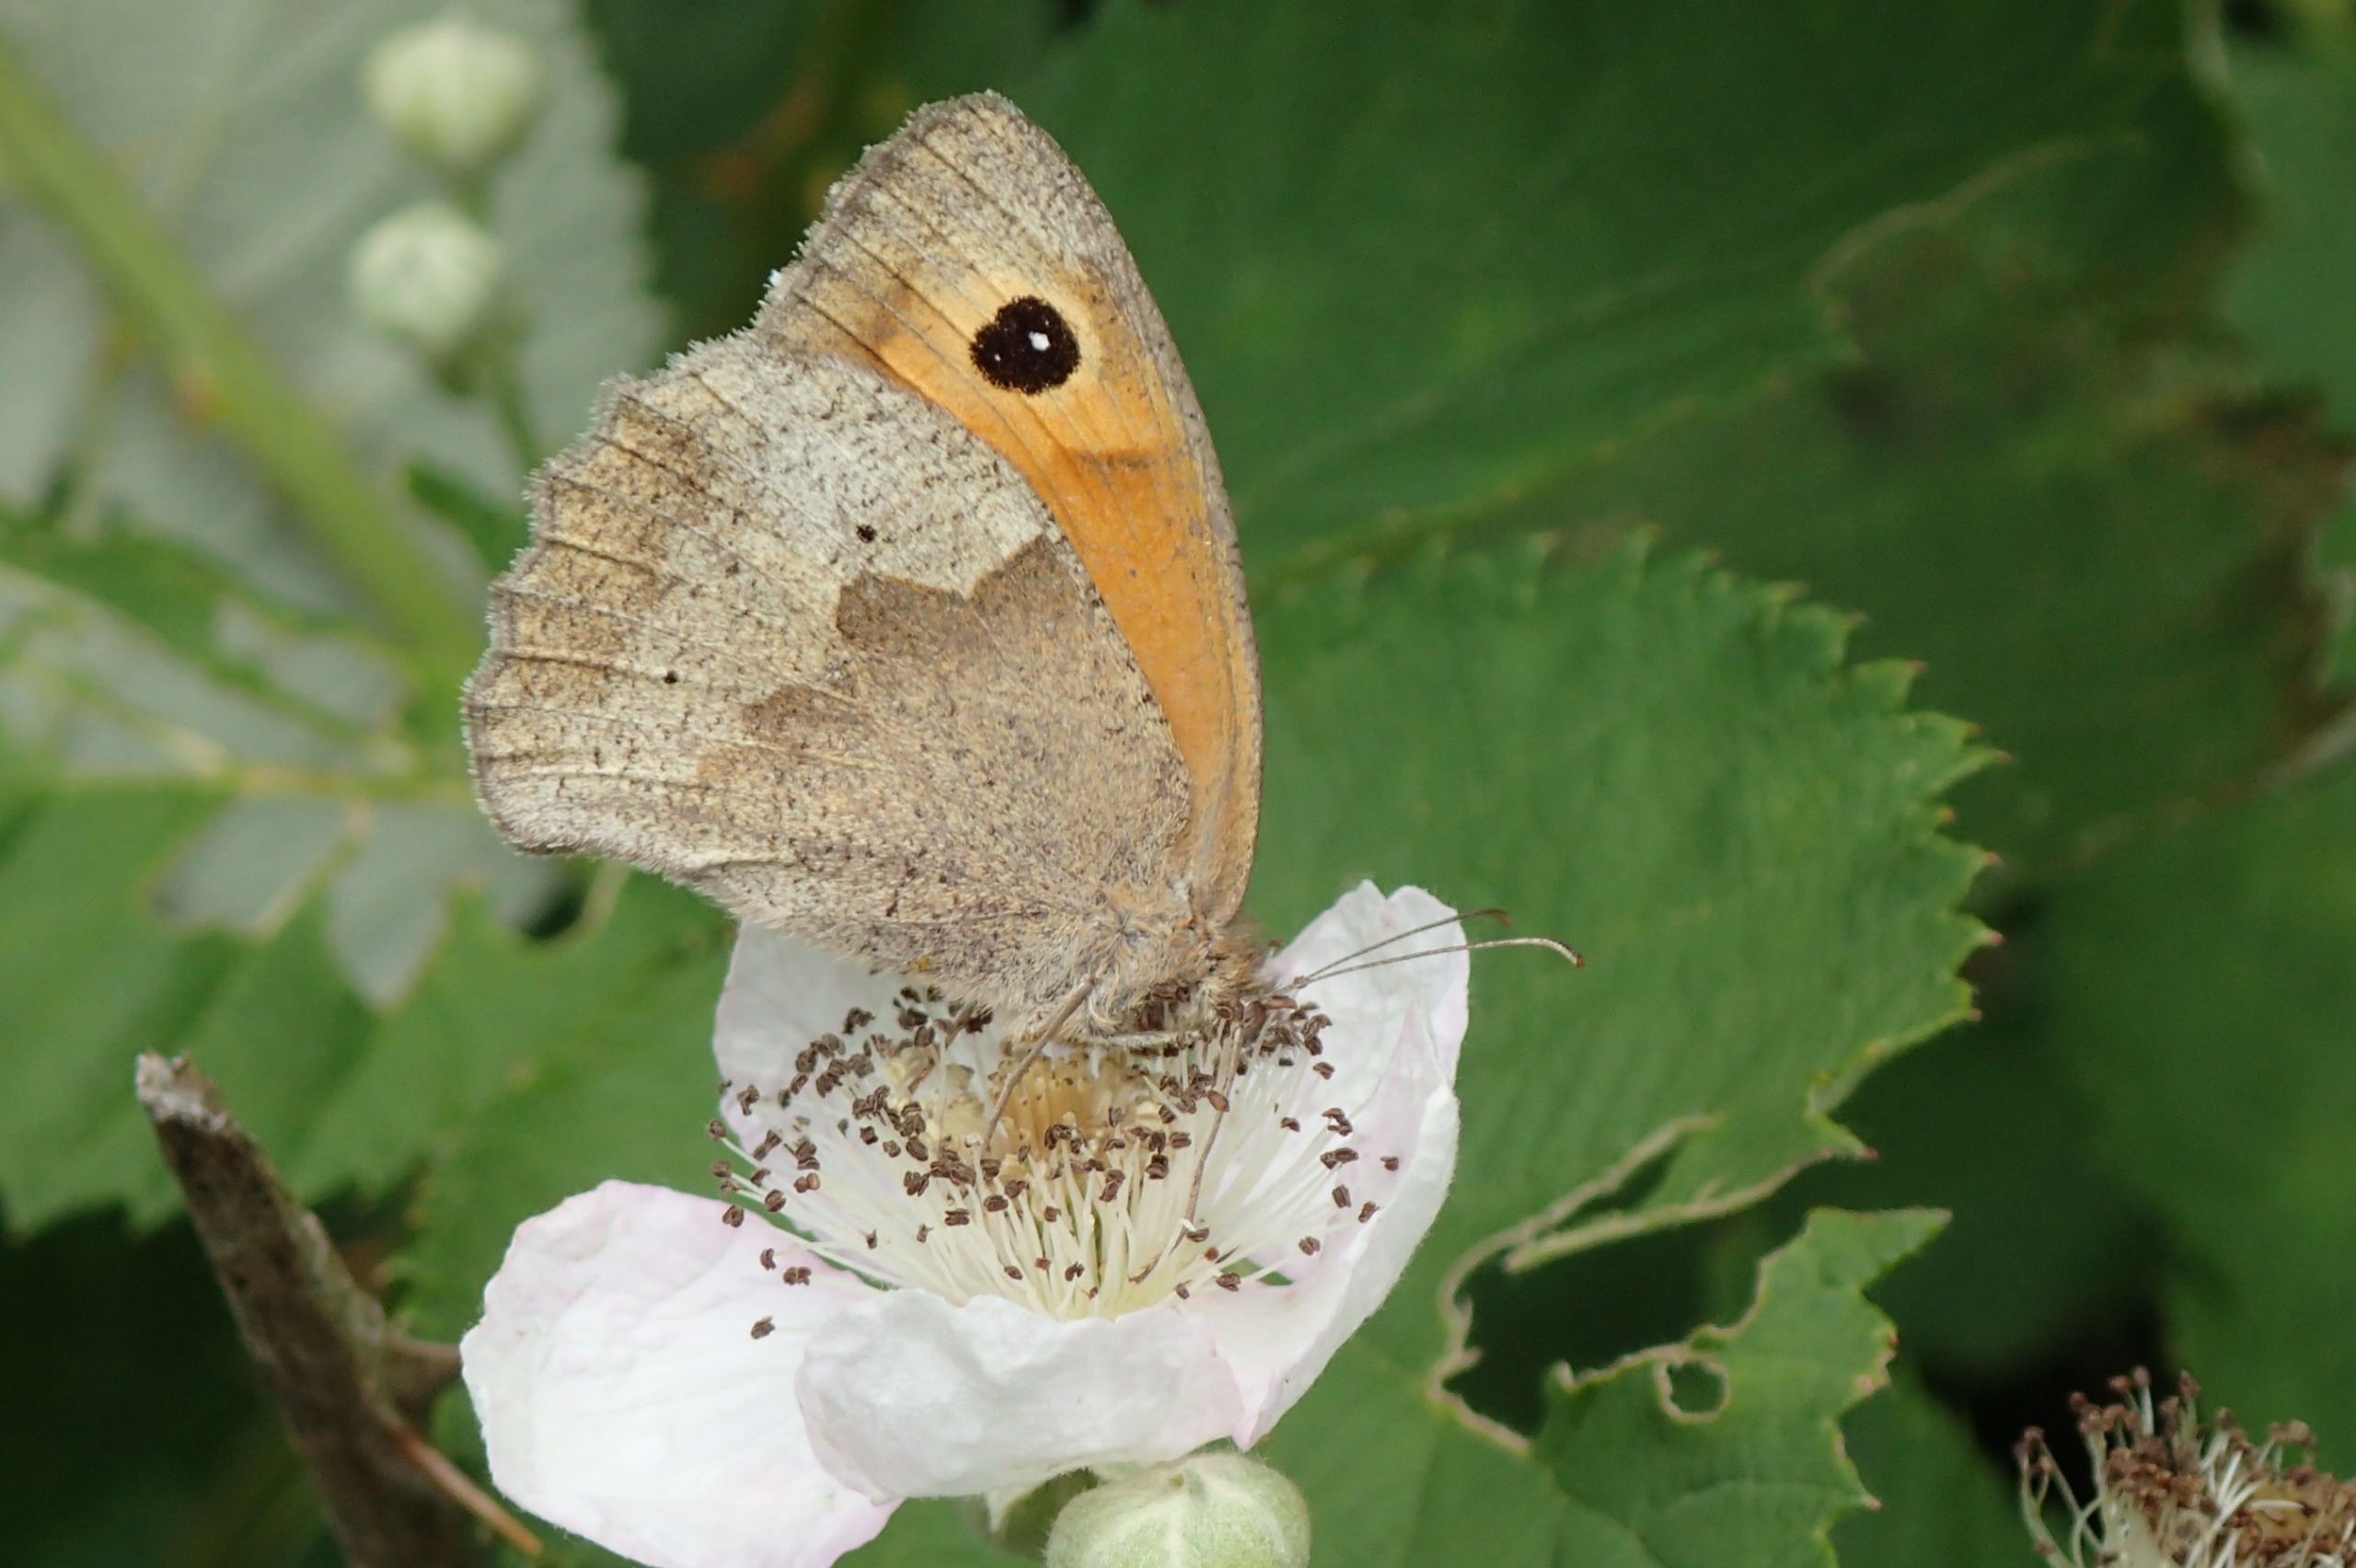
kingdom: Animalia
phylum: Arthropoda
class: Insecta
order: Lepidoptera
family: Nymphalidae
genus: Maniola
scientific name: Maniola jurtina
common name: Græsrandøje
